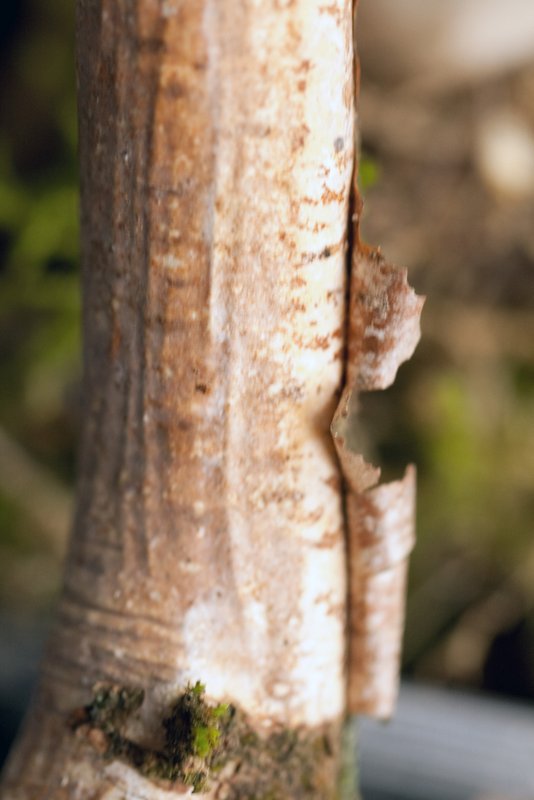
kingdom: Fungi
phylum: Basidiomycota
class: Agaricomycetes
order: Corticiales
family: Vuilleminiaceae
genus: Vuilleminia
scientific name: Vuilleminia coryli
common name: hassel-barksprænger
